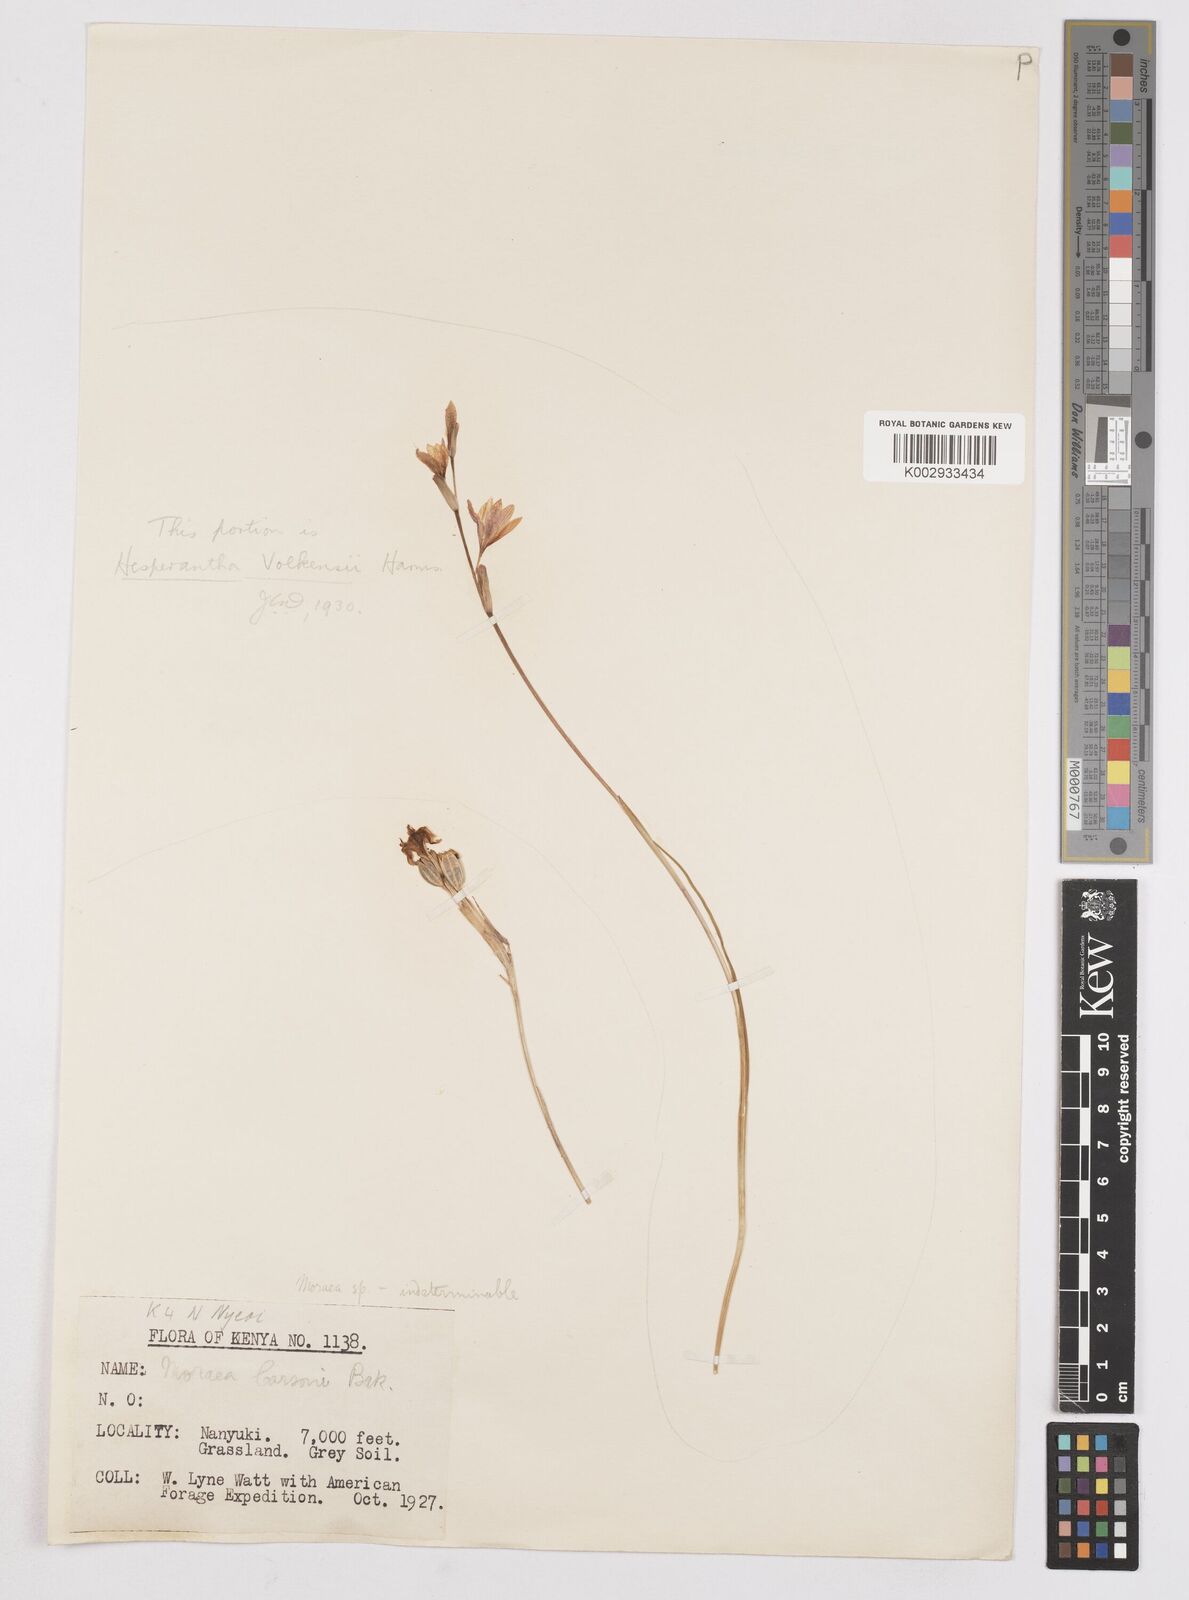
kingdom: Plantae
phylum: Tracheophyta
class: Liliopsida
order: Asparagales
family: Iridaceae
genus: Moraea
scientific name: Moraea stricta
